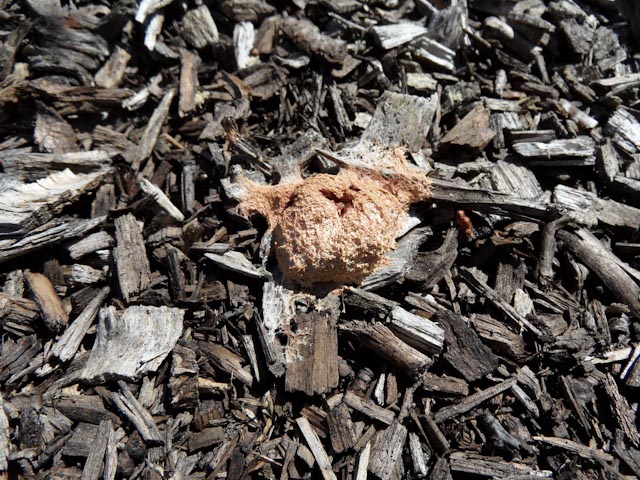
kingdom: Protozoa
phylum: Mycetozoa
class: Myxomycetes
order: Physarales
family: Physaraceae
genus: Fuligo
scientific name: Fuligo septica
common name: Dog vomit slime mold
